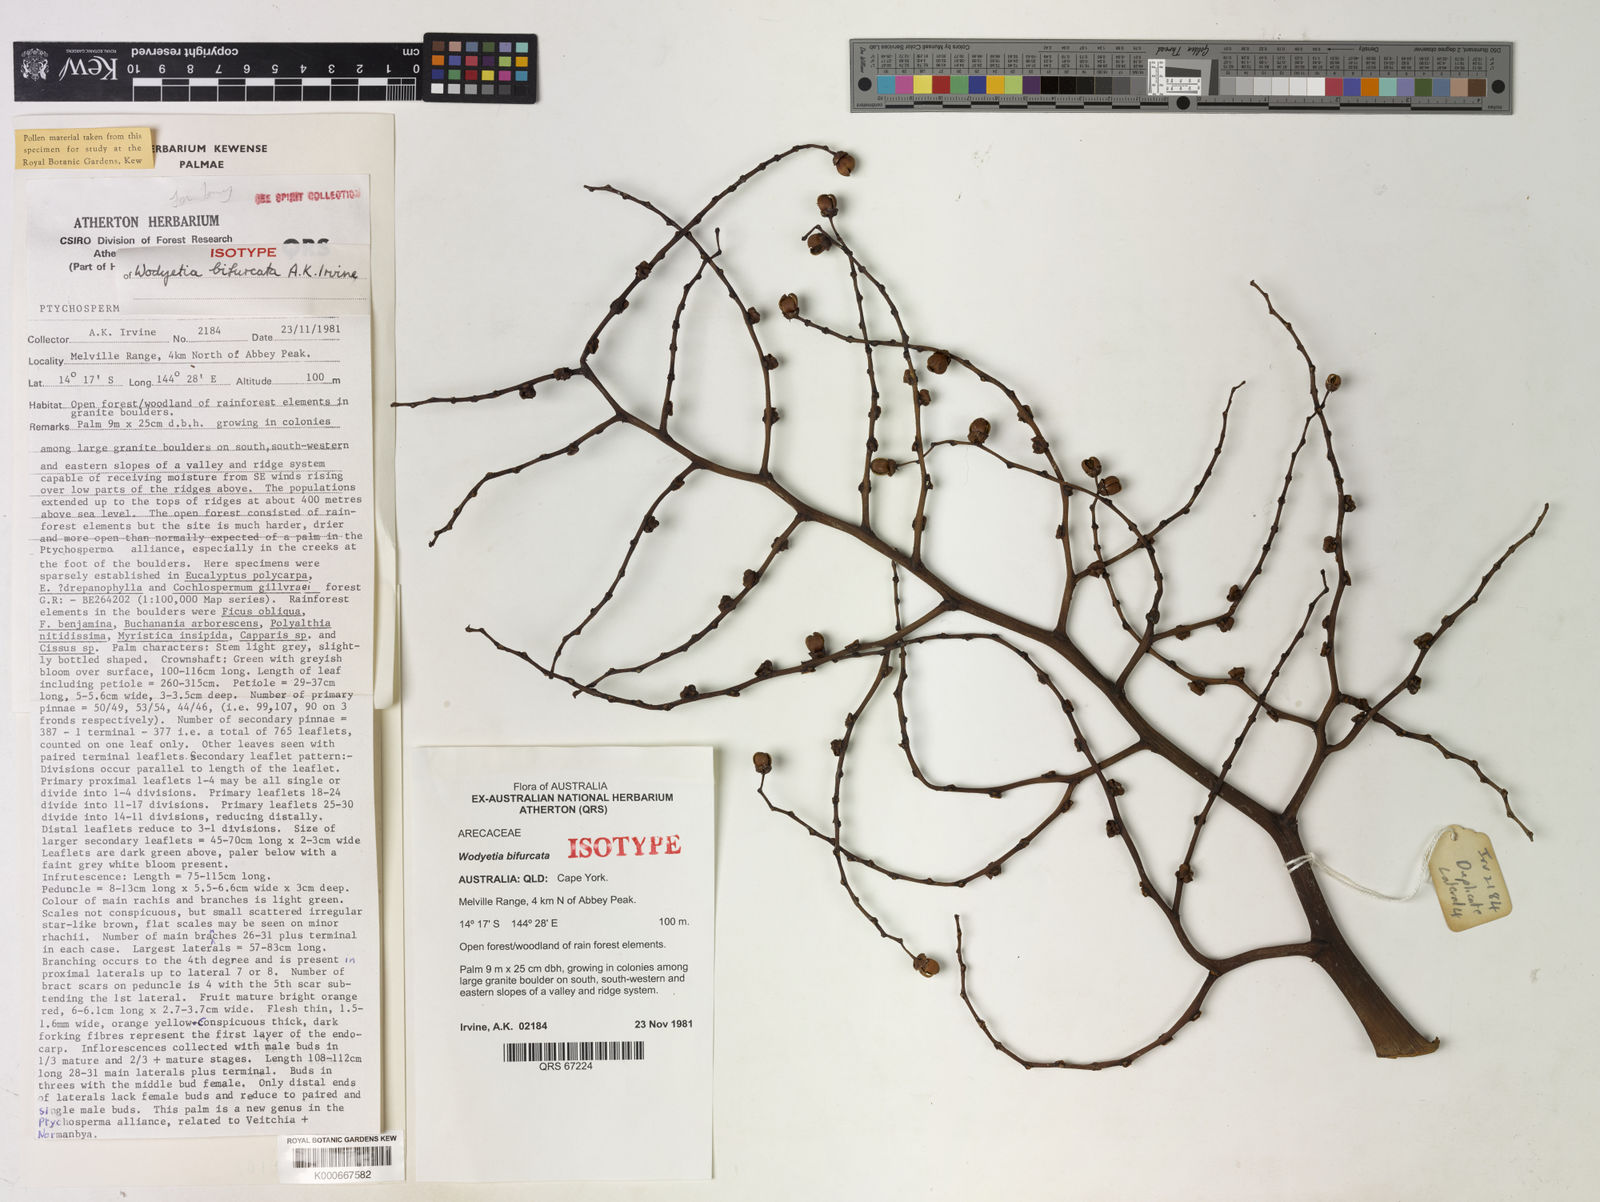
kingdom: Plantae
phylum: Tracheophyta
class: Liliopsida
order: Arecales
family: Arecaceae
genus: Wodyetia
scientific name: Wodyetia bifurcata
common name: Foxtail palm
